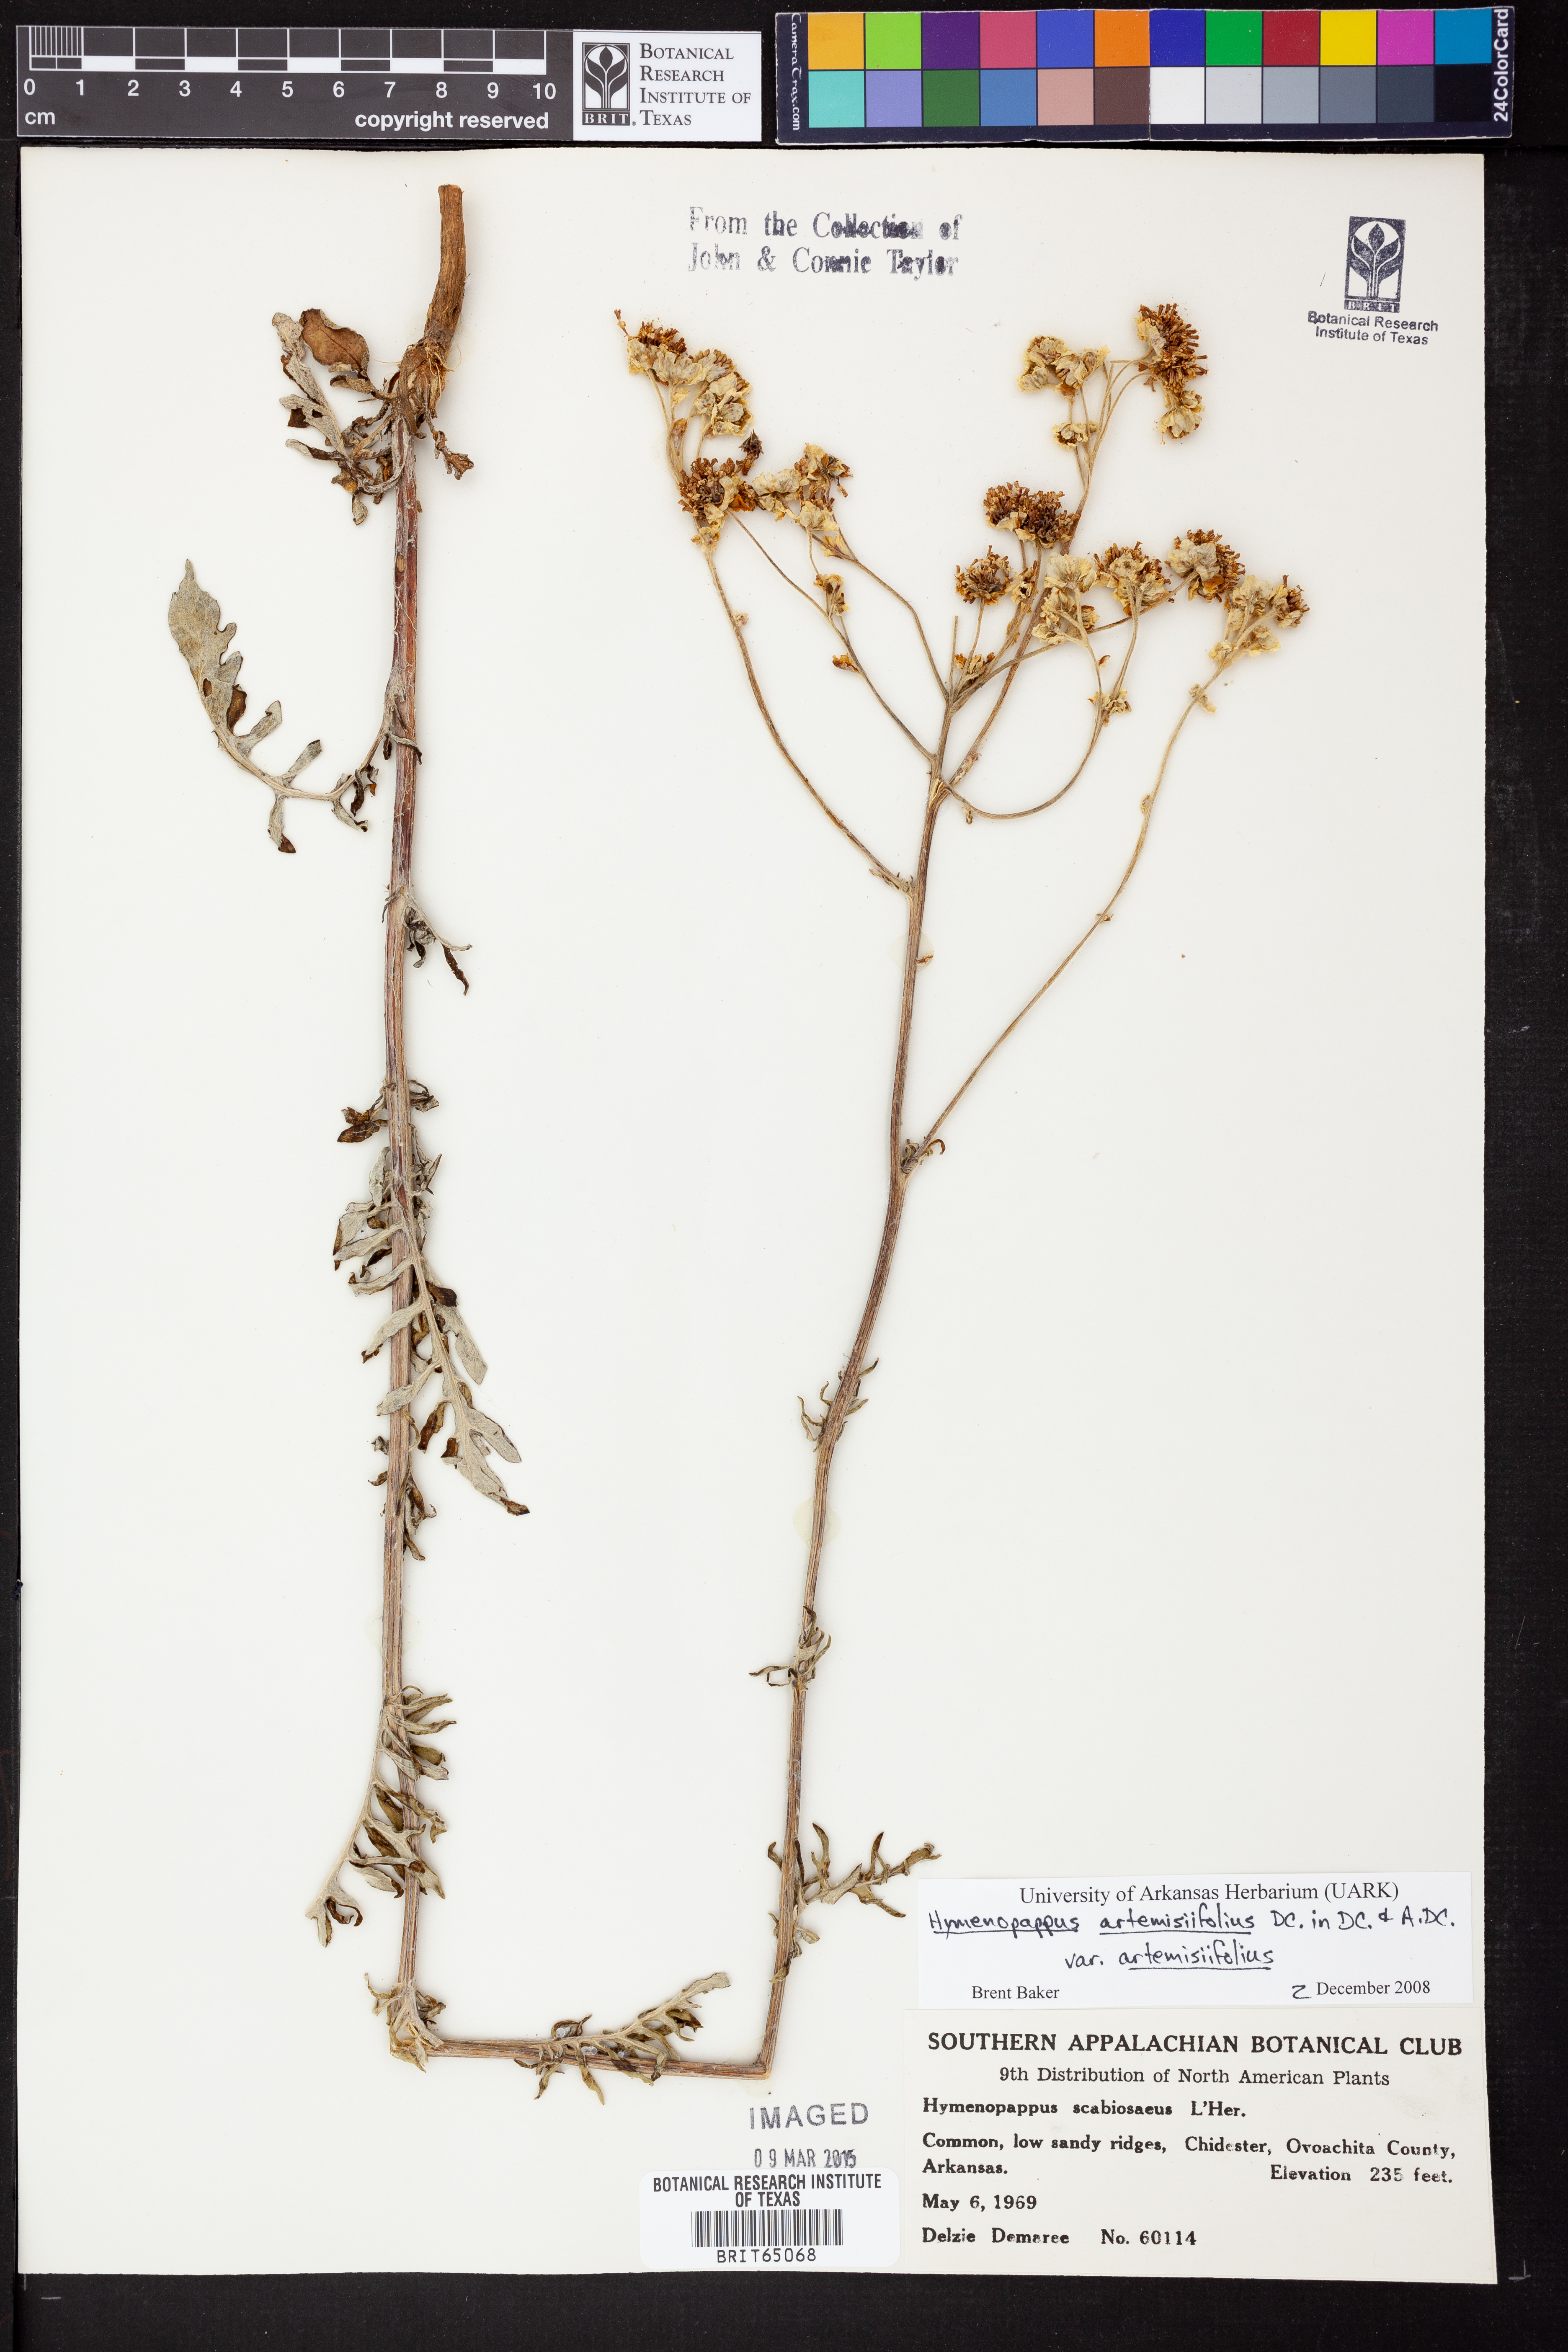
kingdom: Plantae
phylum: Tracheophyta
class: Magnoliopsida
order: Asterales
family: Asteraceae
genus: Hymenopappus
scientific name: Hymenopappus artemisiifolius
